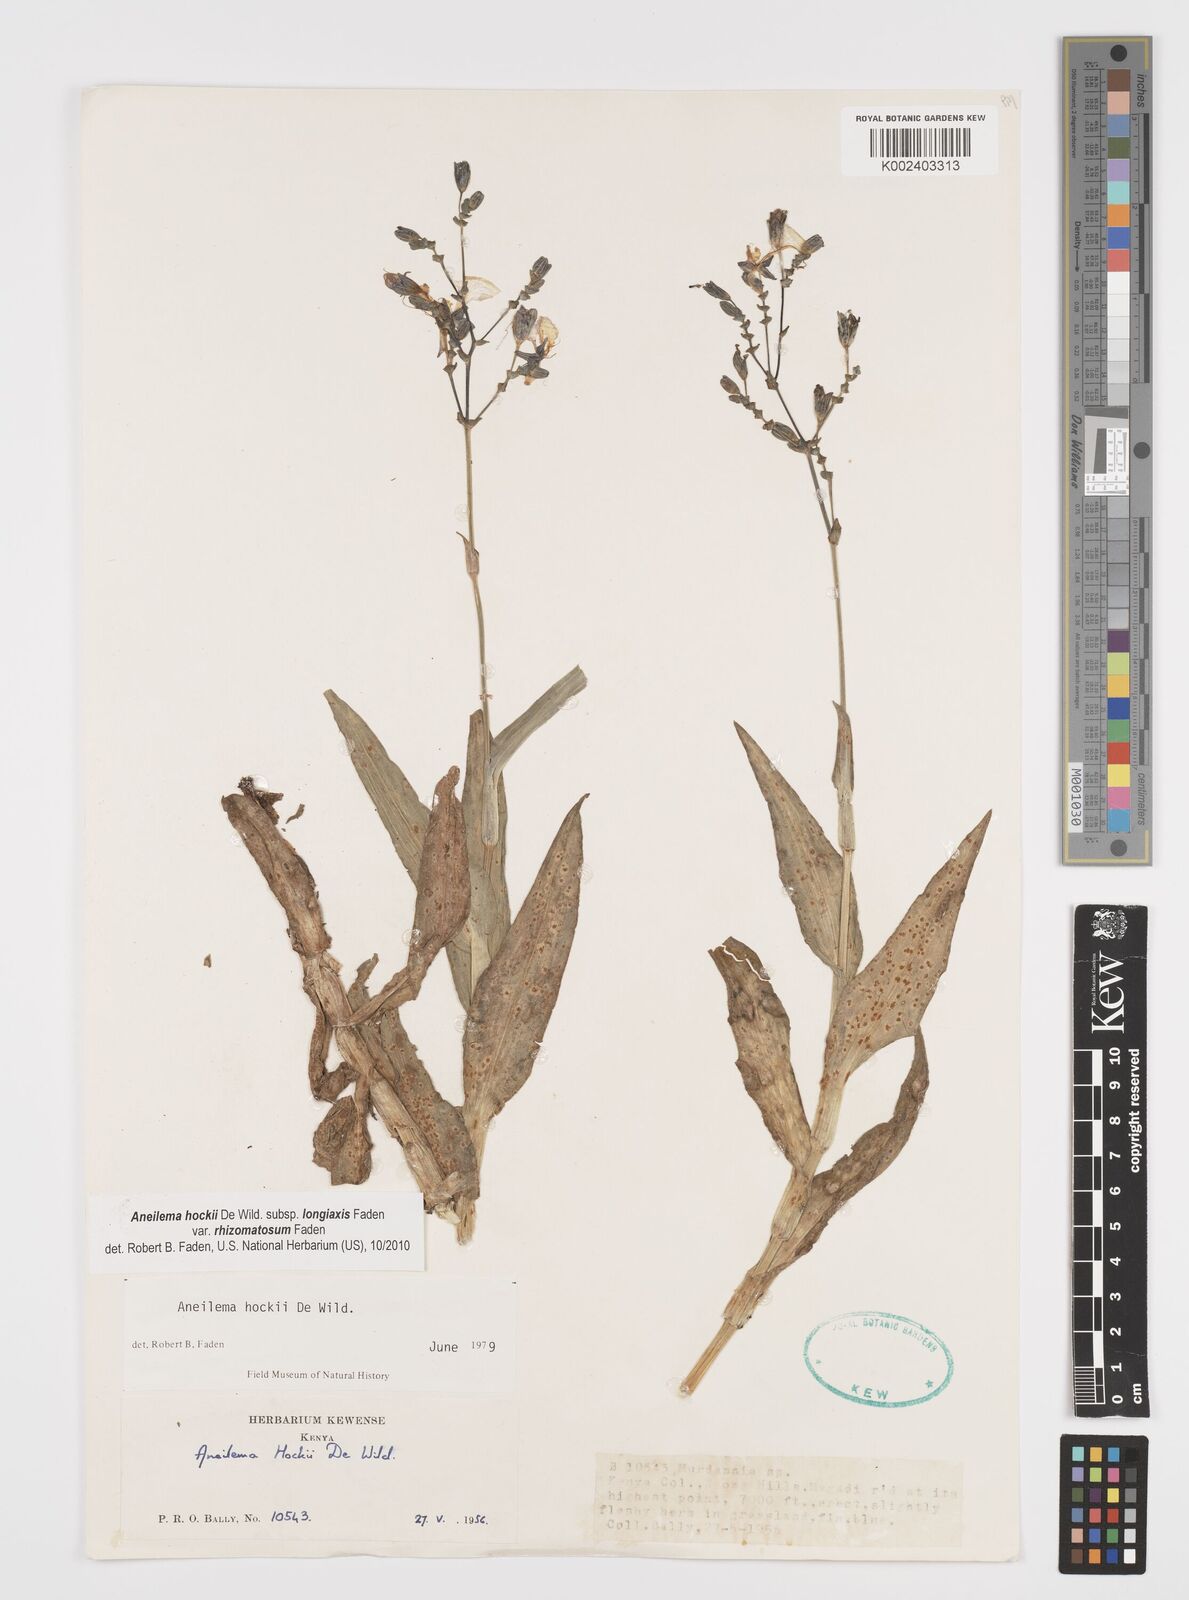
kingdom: Plantae
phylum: Tracheophyta
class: Liliopsida
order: Commelinales
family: Commelinaceae
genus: Aneilema
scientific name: Aneilema hockii
